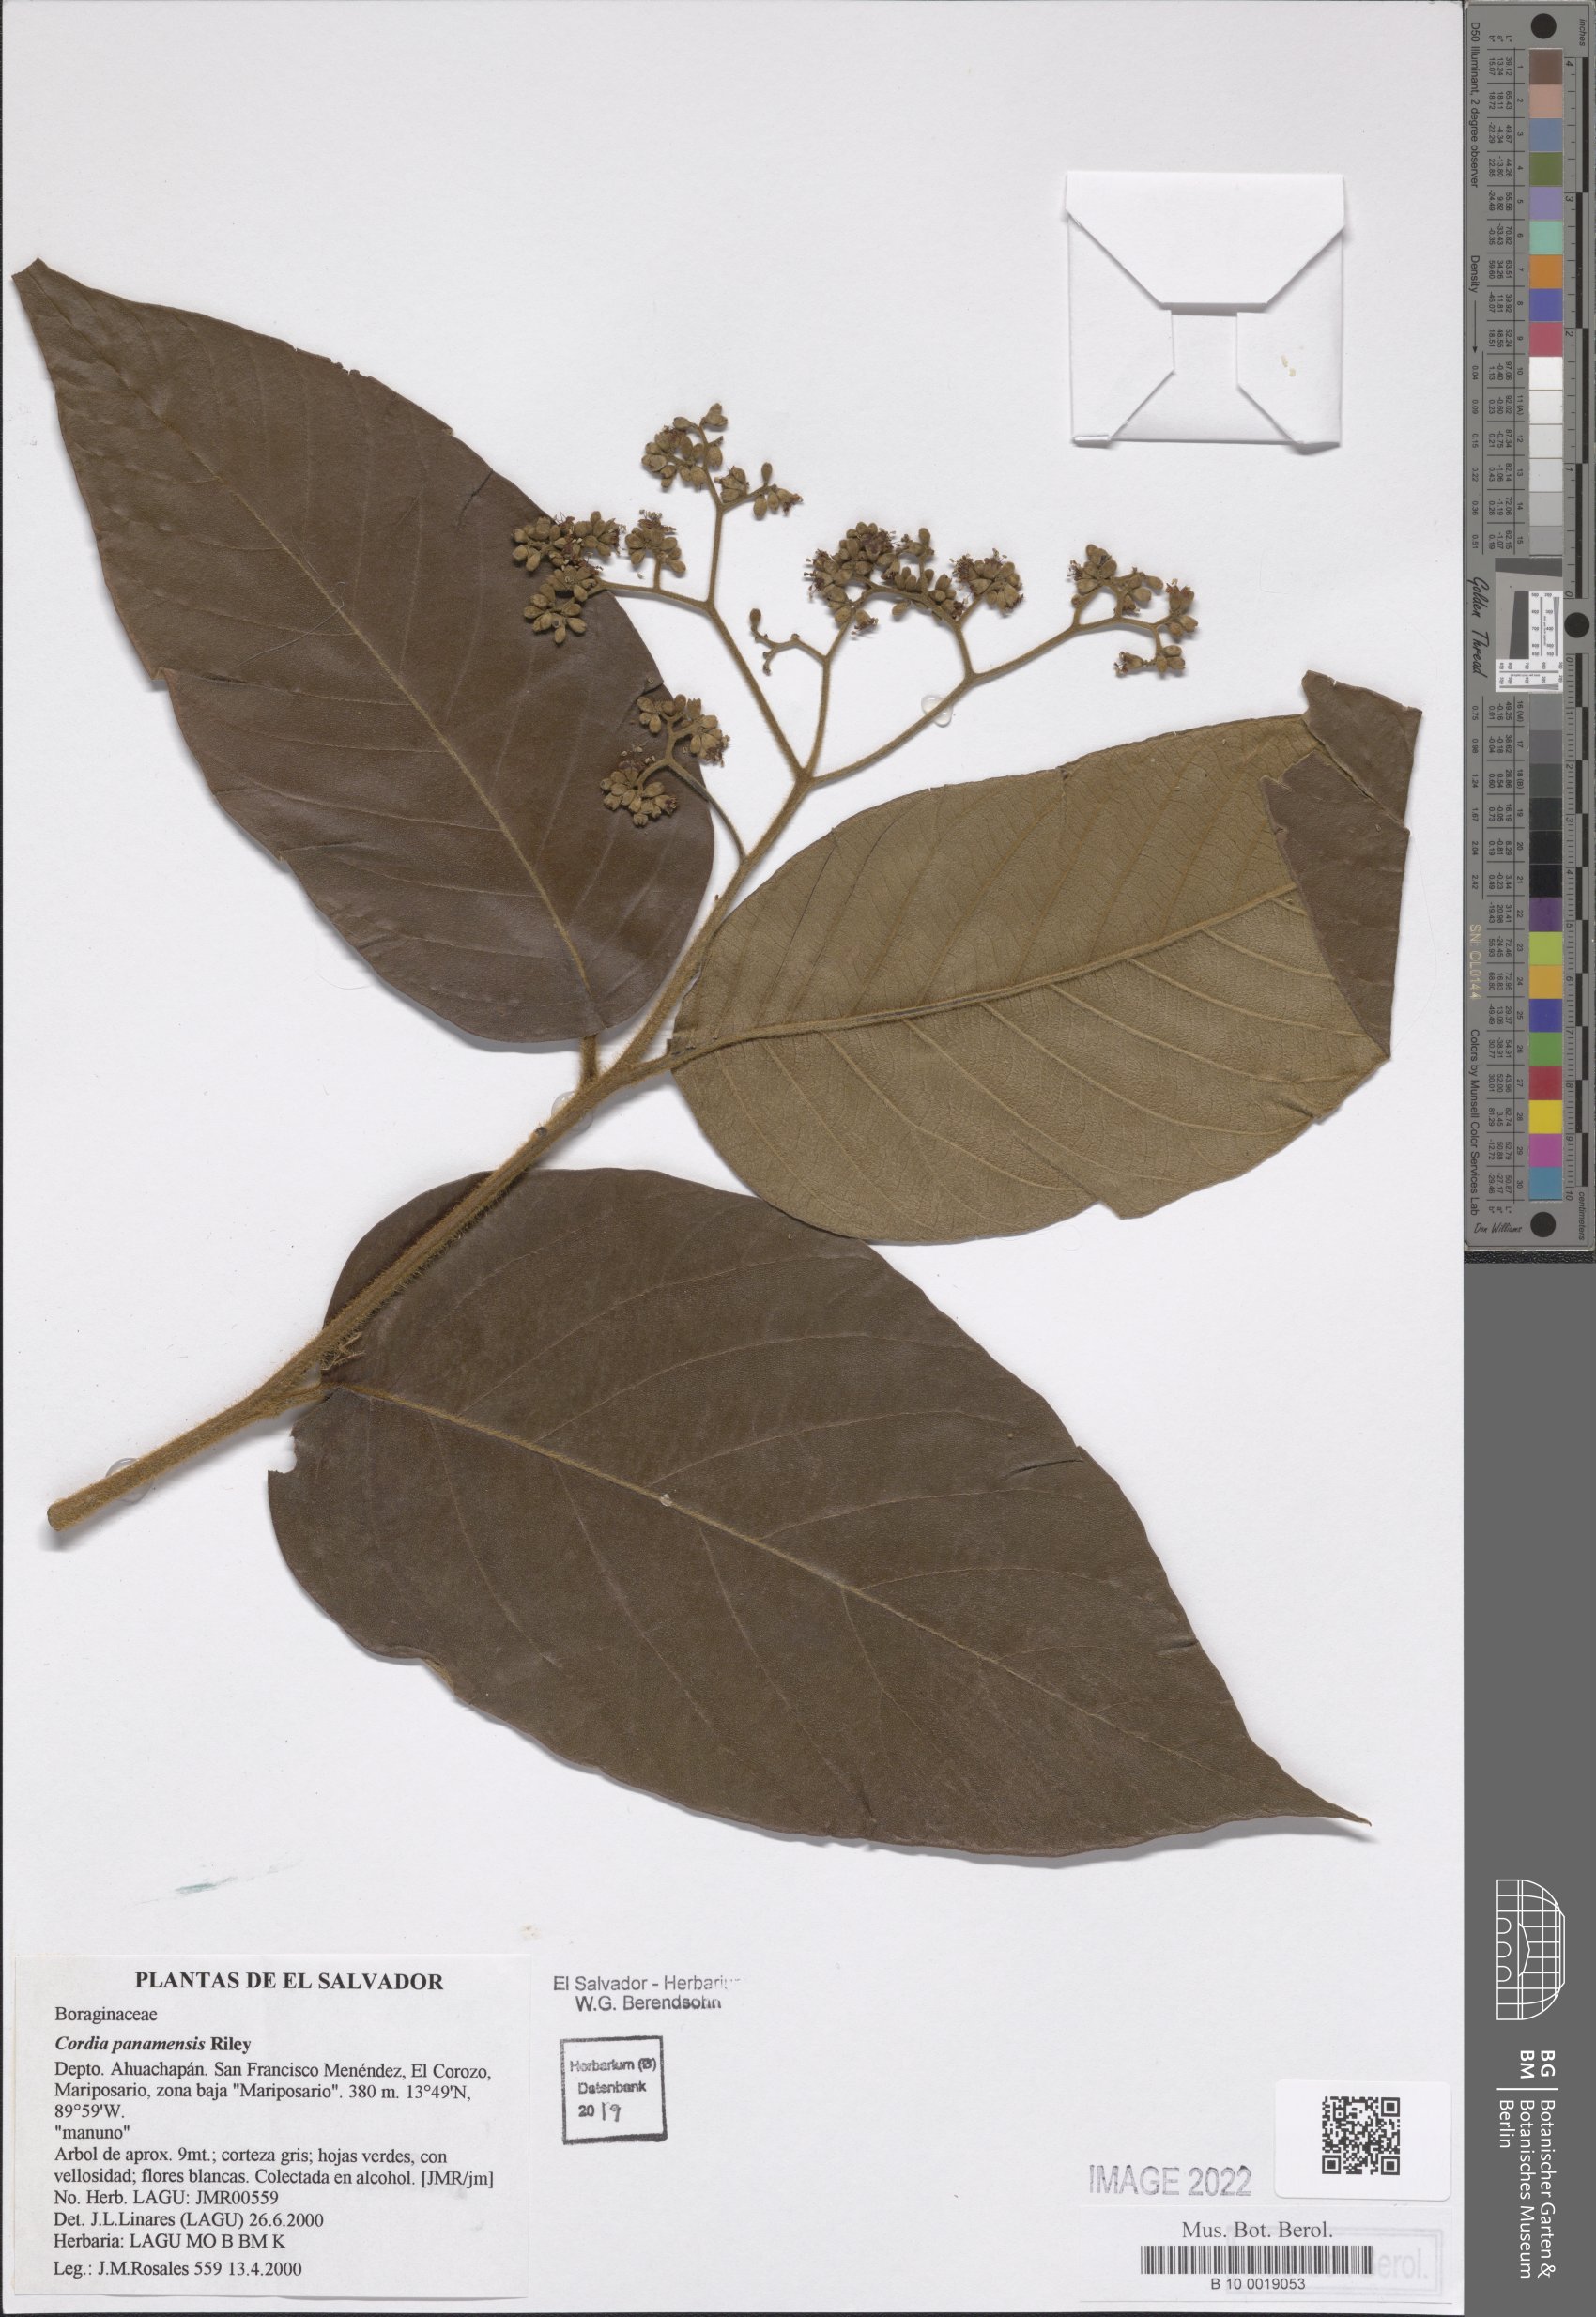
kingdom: Plantae
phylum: Tracheophyta
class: Magnoliopsida
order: Boraginales
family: Cordiaceae
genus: Cordia
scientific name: Cordia panamensis
